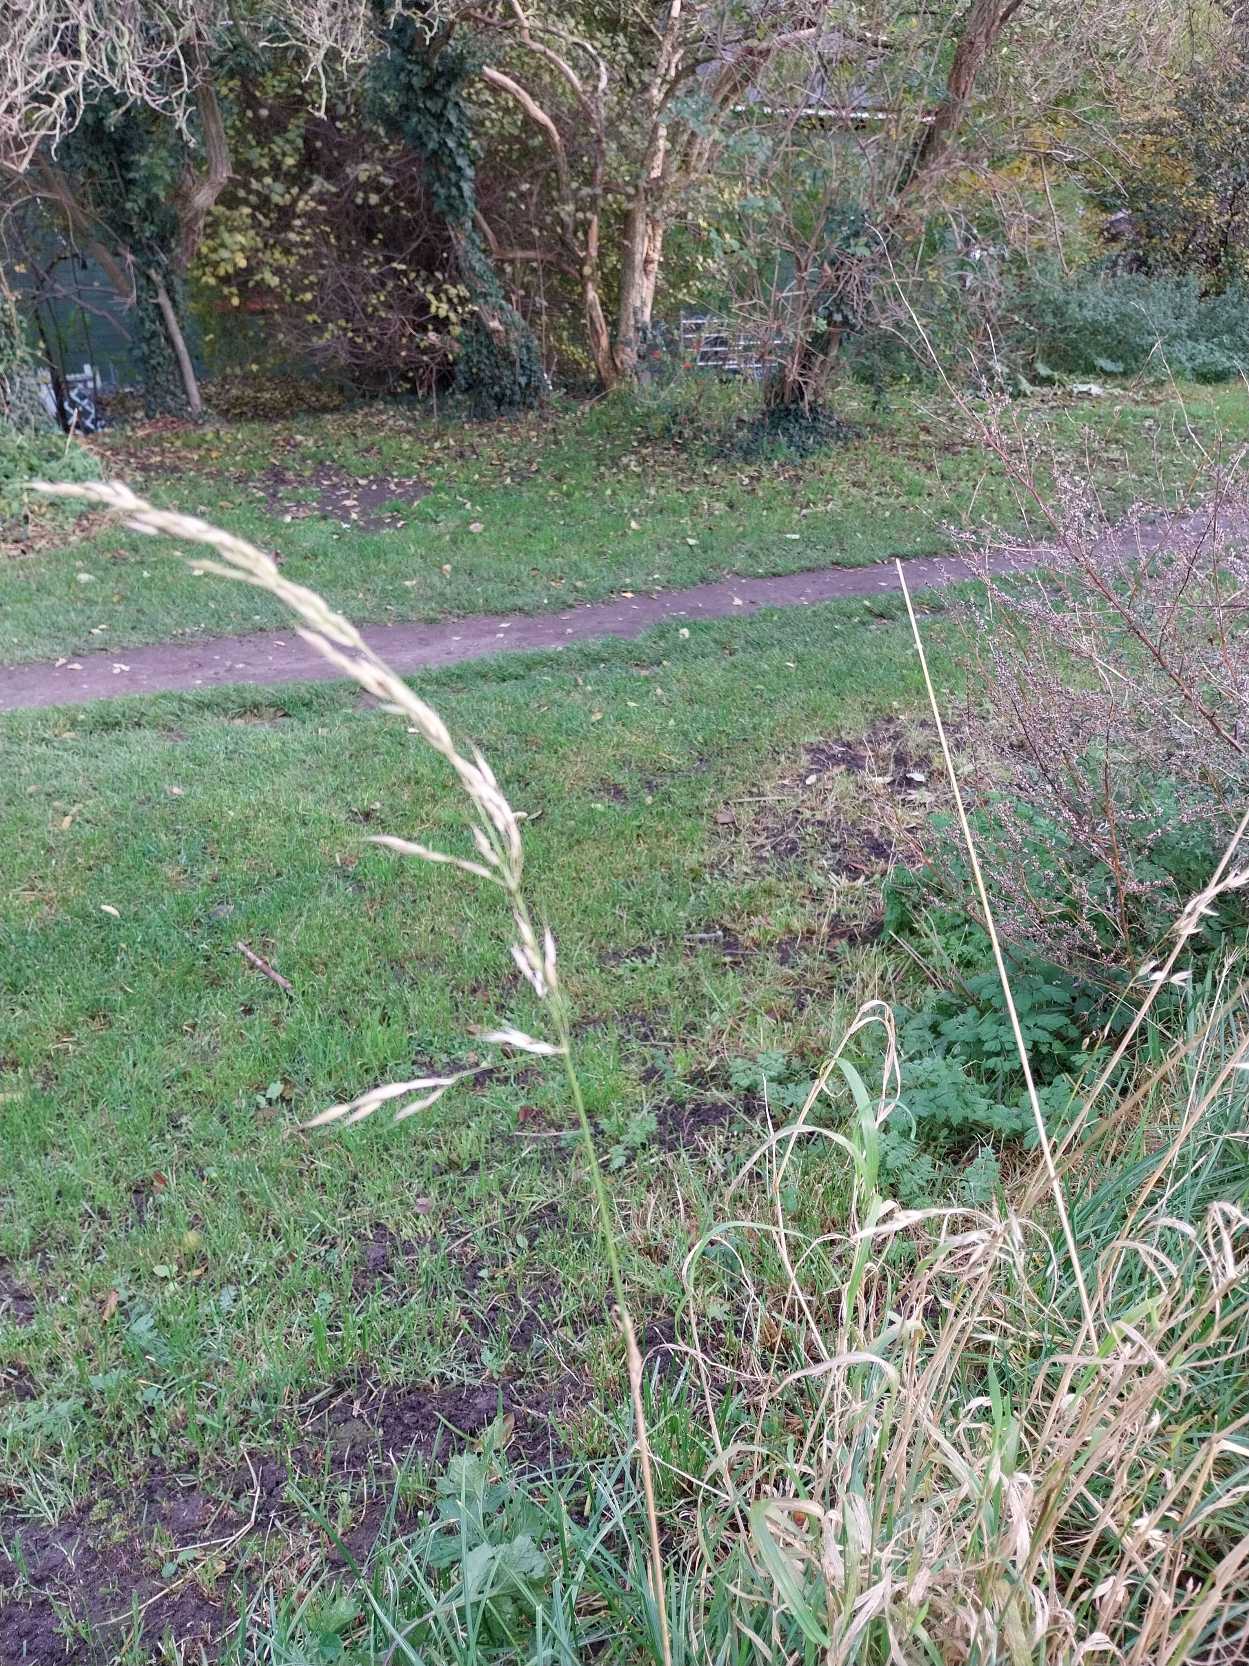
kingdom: Plantae
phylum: Tracheophyta
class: Liliopsida
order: Poales
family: Poaceae
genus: Arrhenatherum
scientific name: Arrhenatherum elatius
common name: Draphavre
